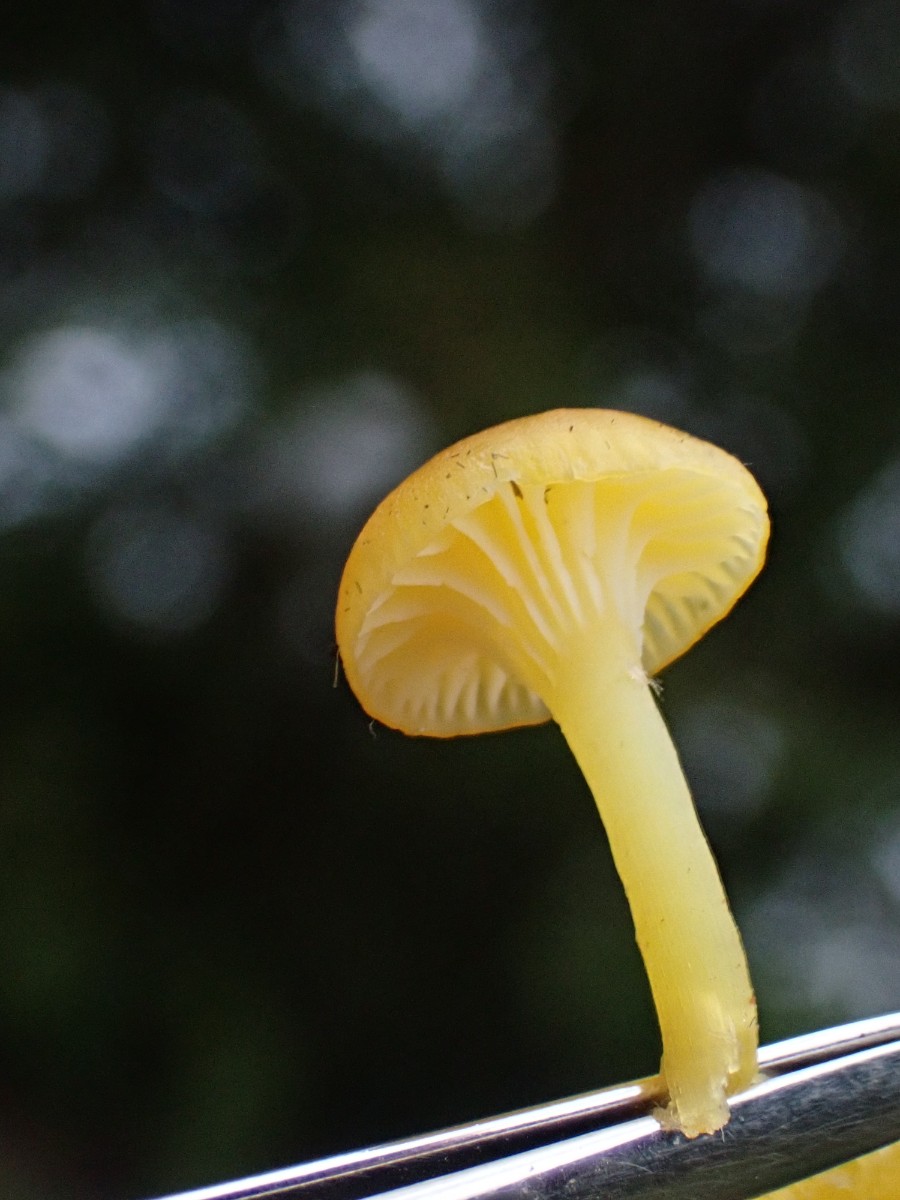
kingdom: Fungi
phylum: Basidiomycota
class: Agaricomycetes
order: Agaricales
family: Hygrophoraceae
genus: Hygrocybe
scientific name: Hygrocybe ceracea
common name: voksgul vokshat
